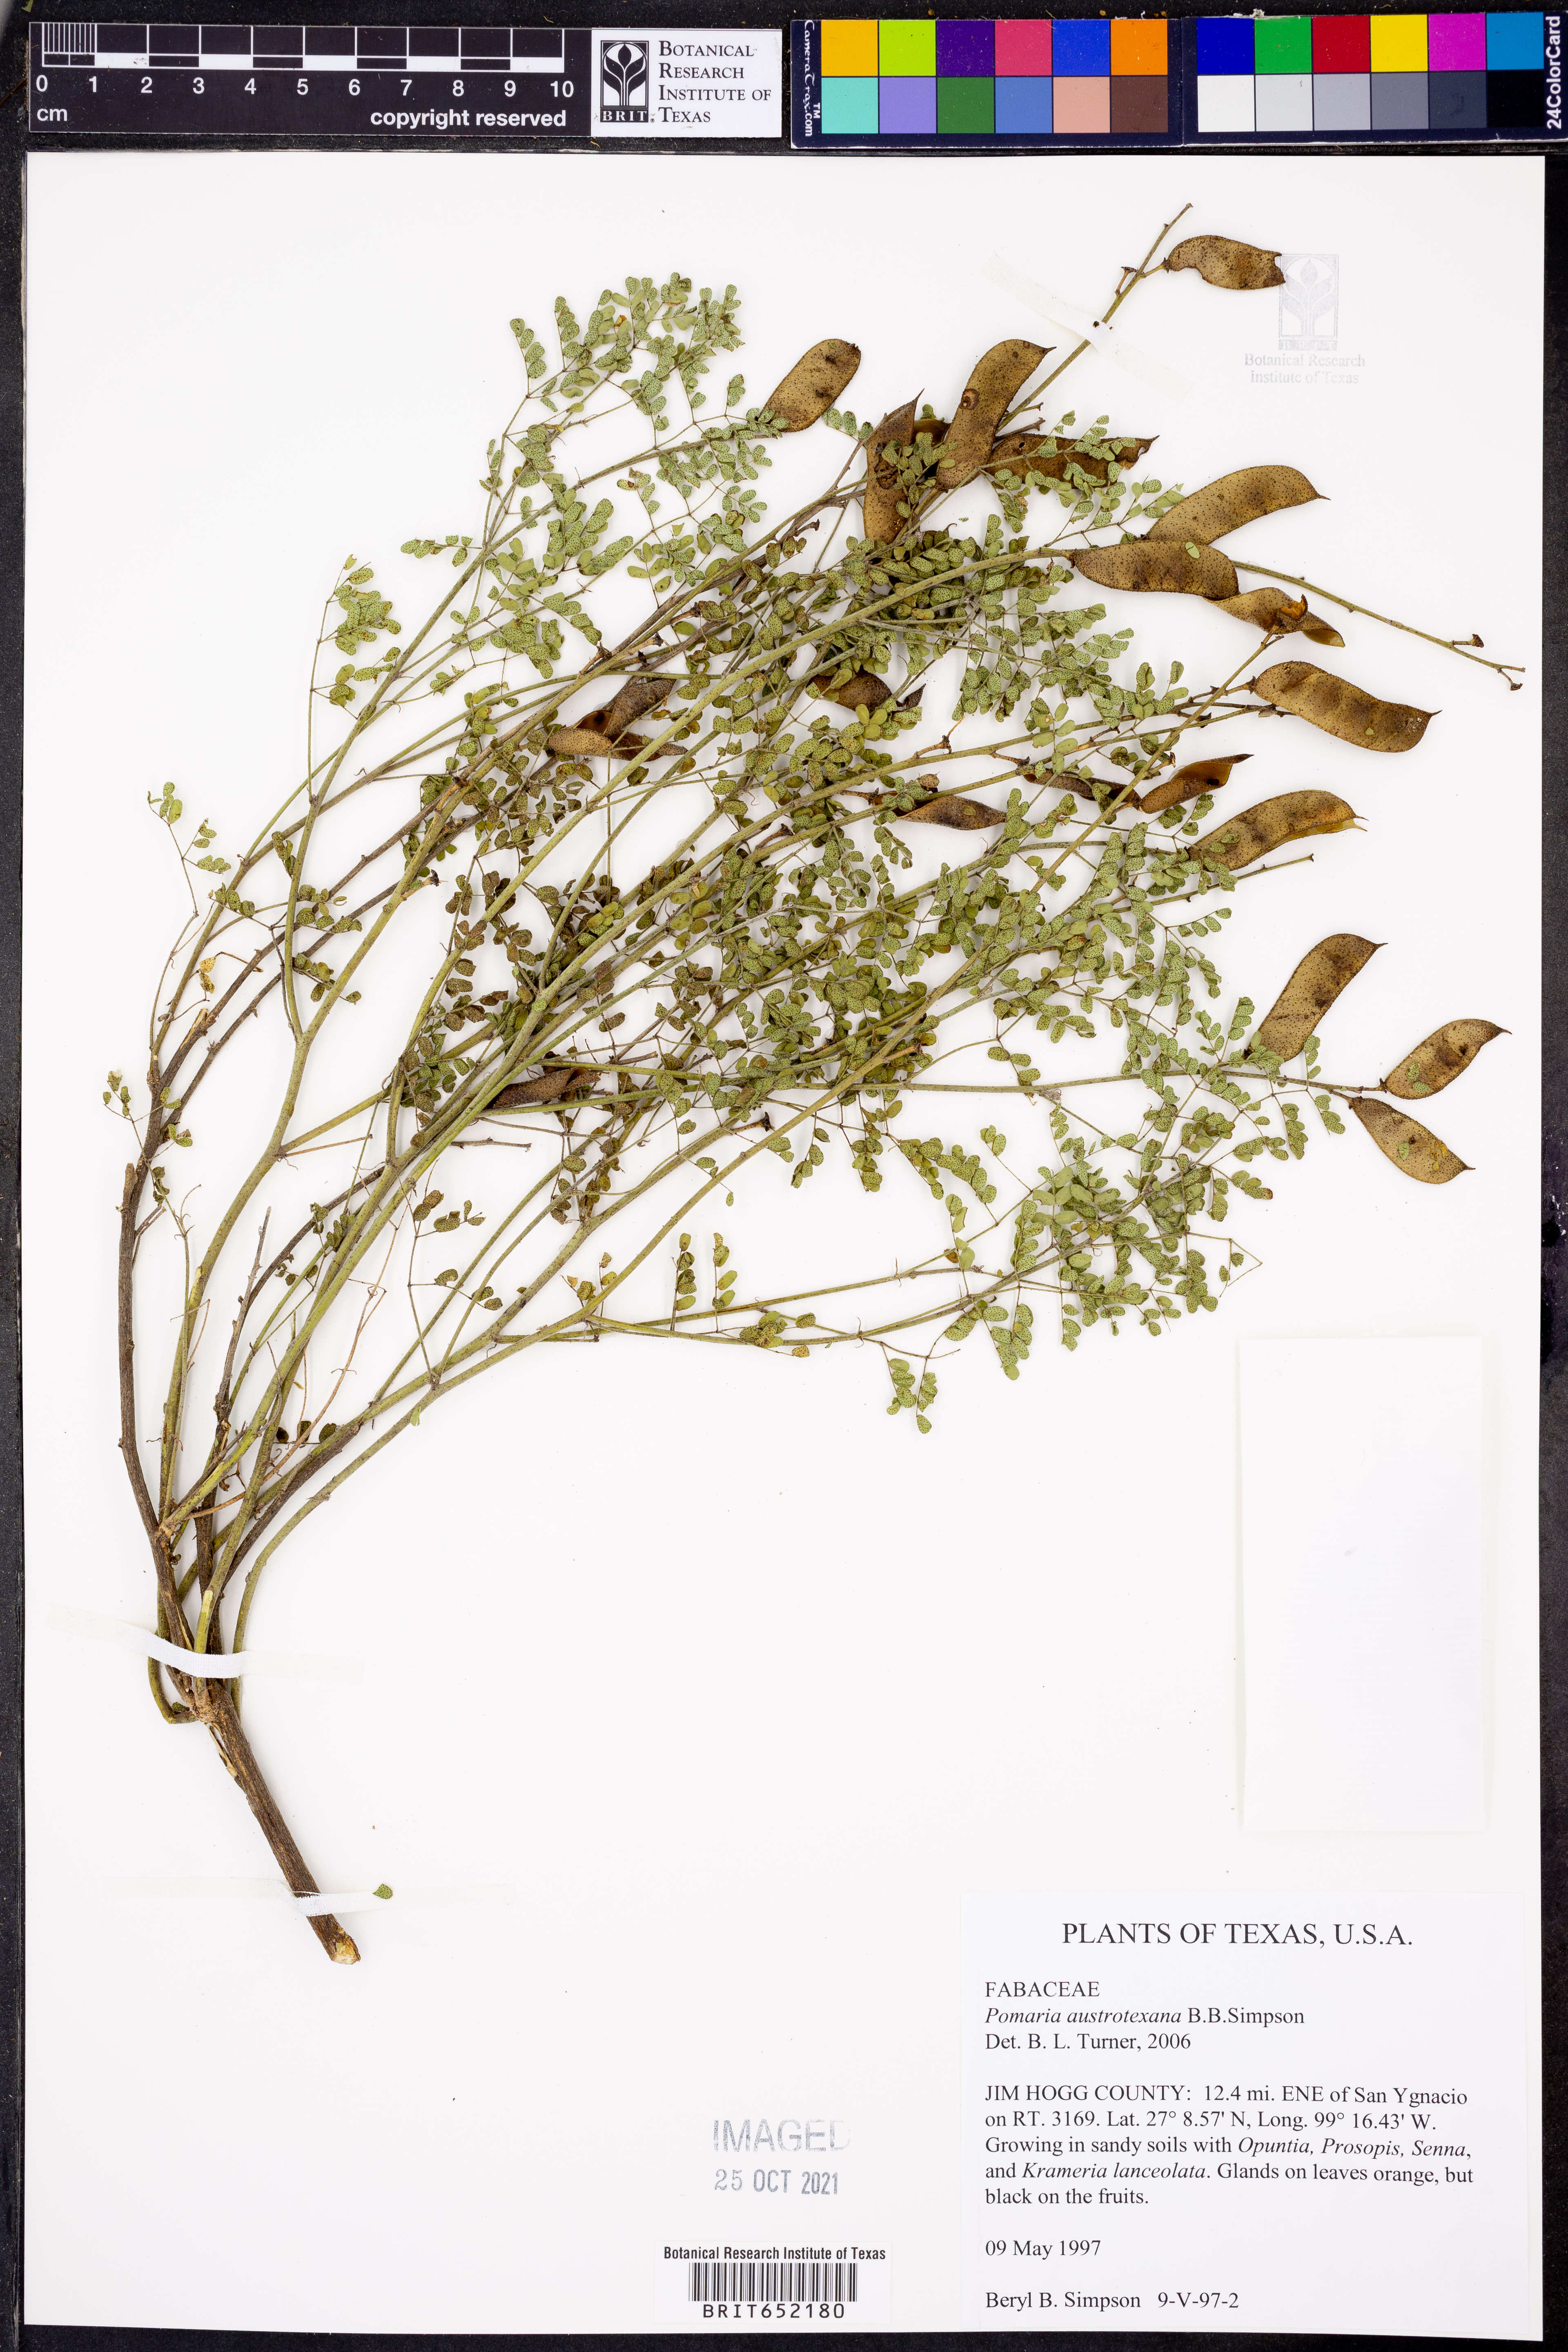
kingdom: Plantae
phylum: Tracheophyta
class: Magnoliopsida
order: Fabales
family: Fabaceae
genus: Pomaria
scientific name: Pomaria austrotexana
